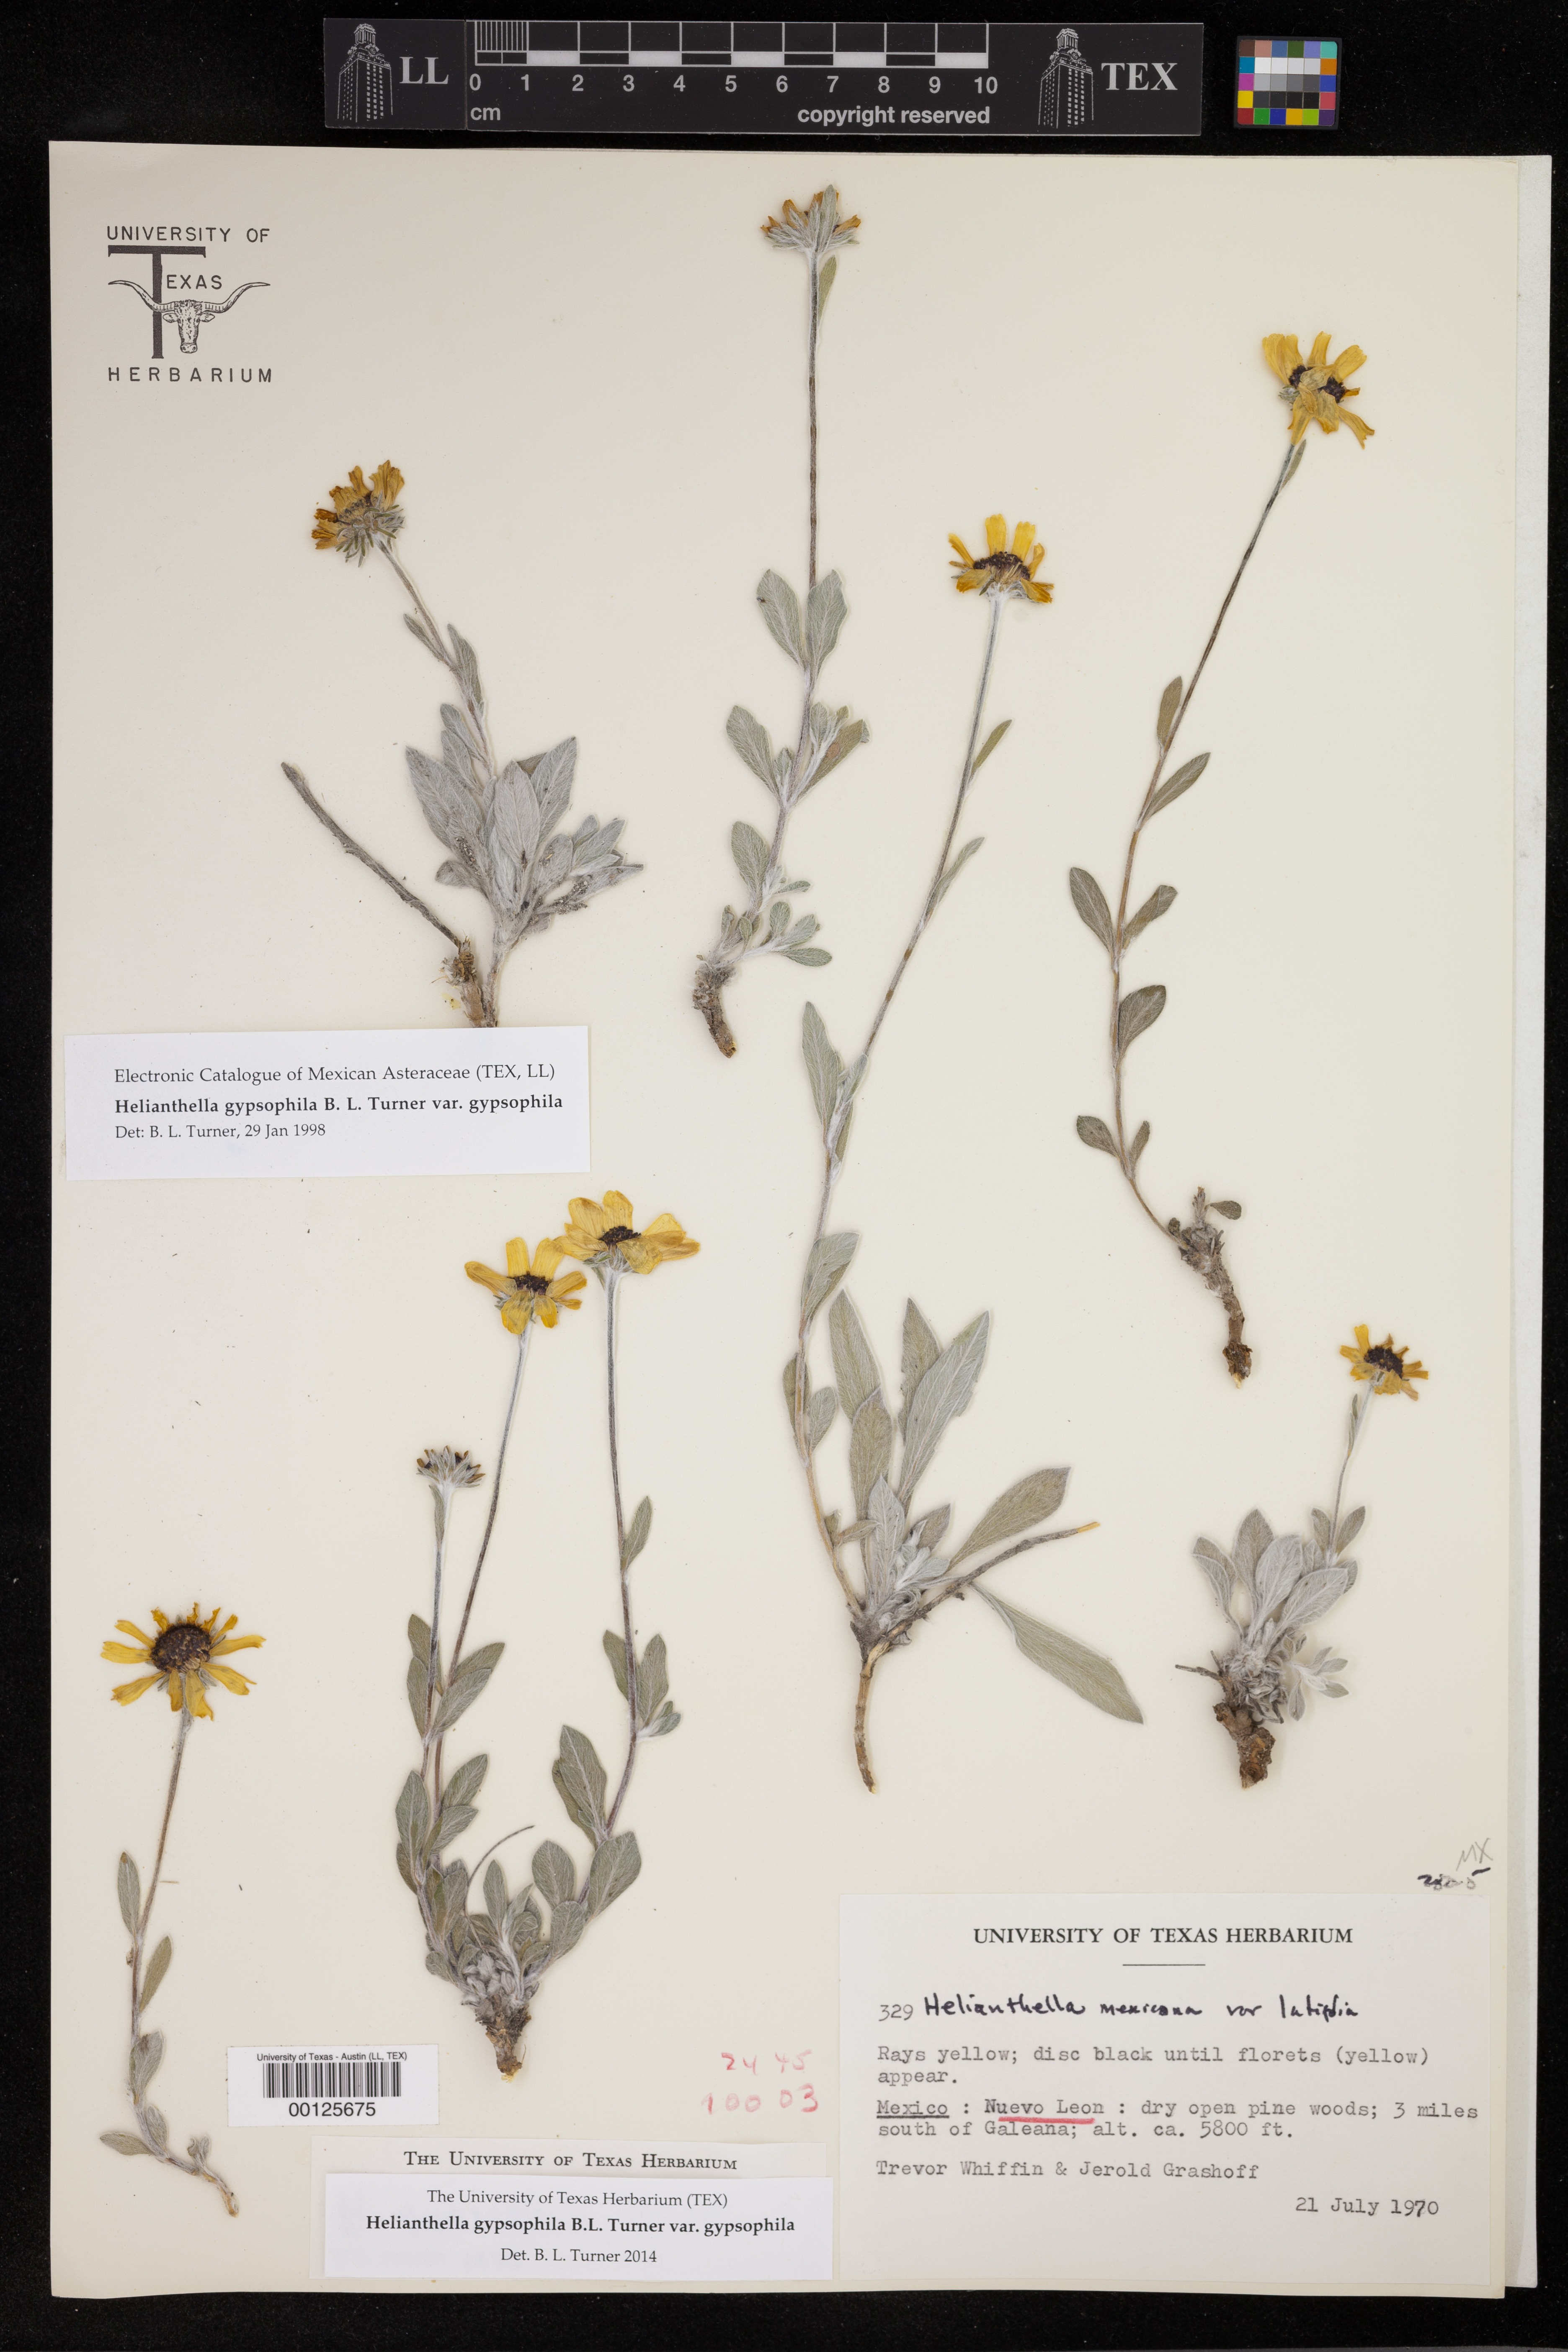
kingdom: Plantae
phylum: Tracheophyta
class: Magnoliopsida
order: Asterales
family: Asteraceae
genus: Helianthella
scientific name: Helianthella gypsophila
